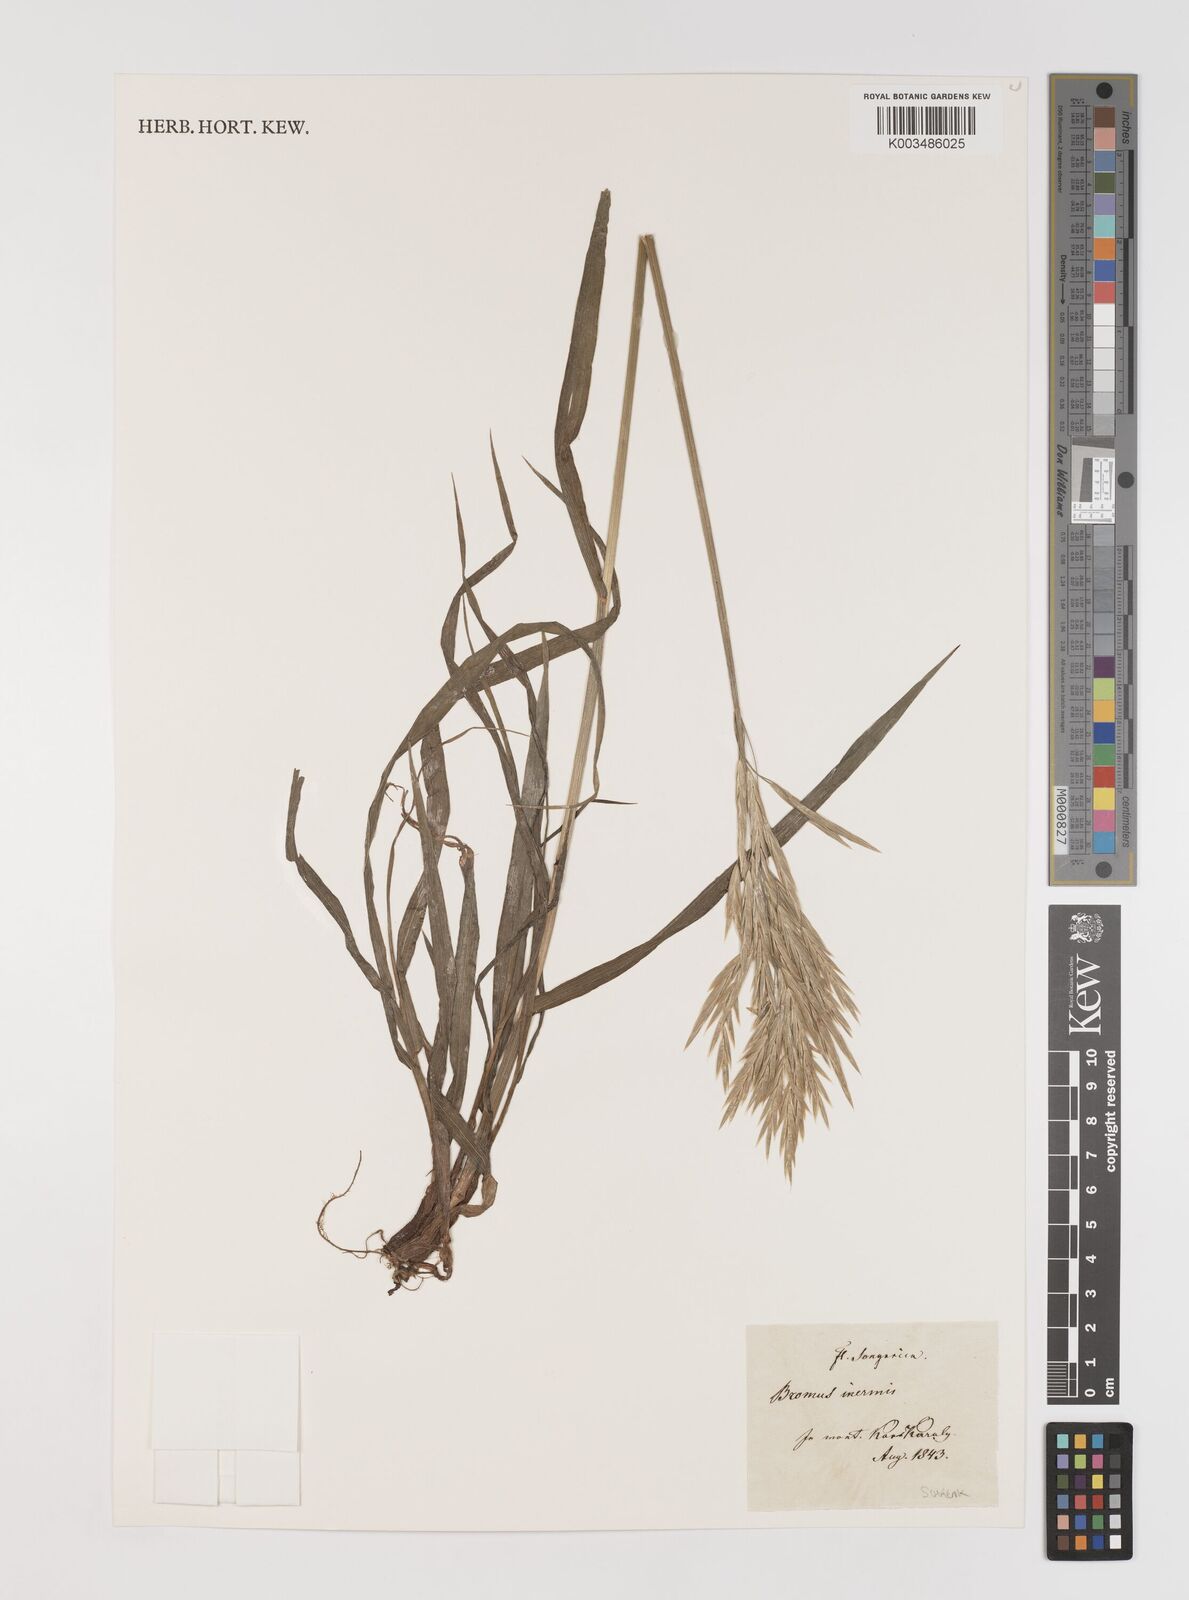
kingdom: Plantae
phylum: Tracheophyta
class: Liliopsida
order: Poales
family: Poaceae
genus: Bromus
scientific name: Bromus inermis
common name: Smooth brome
